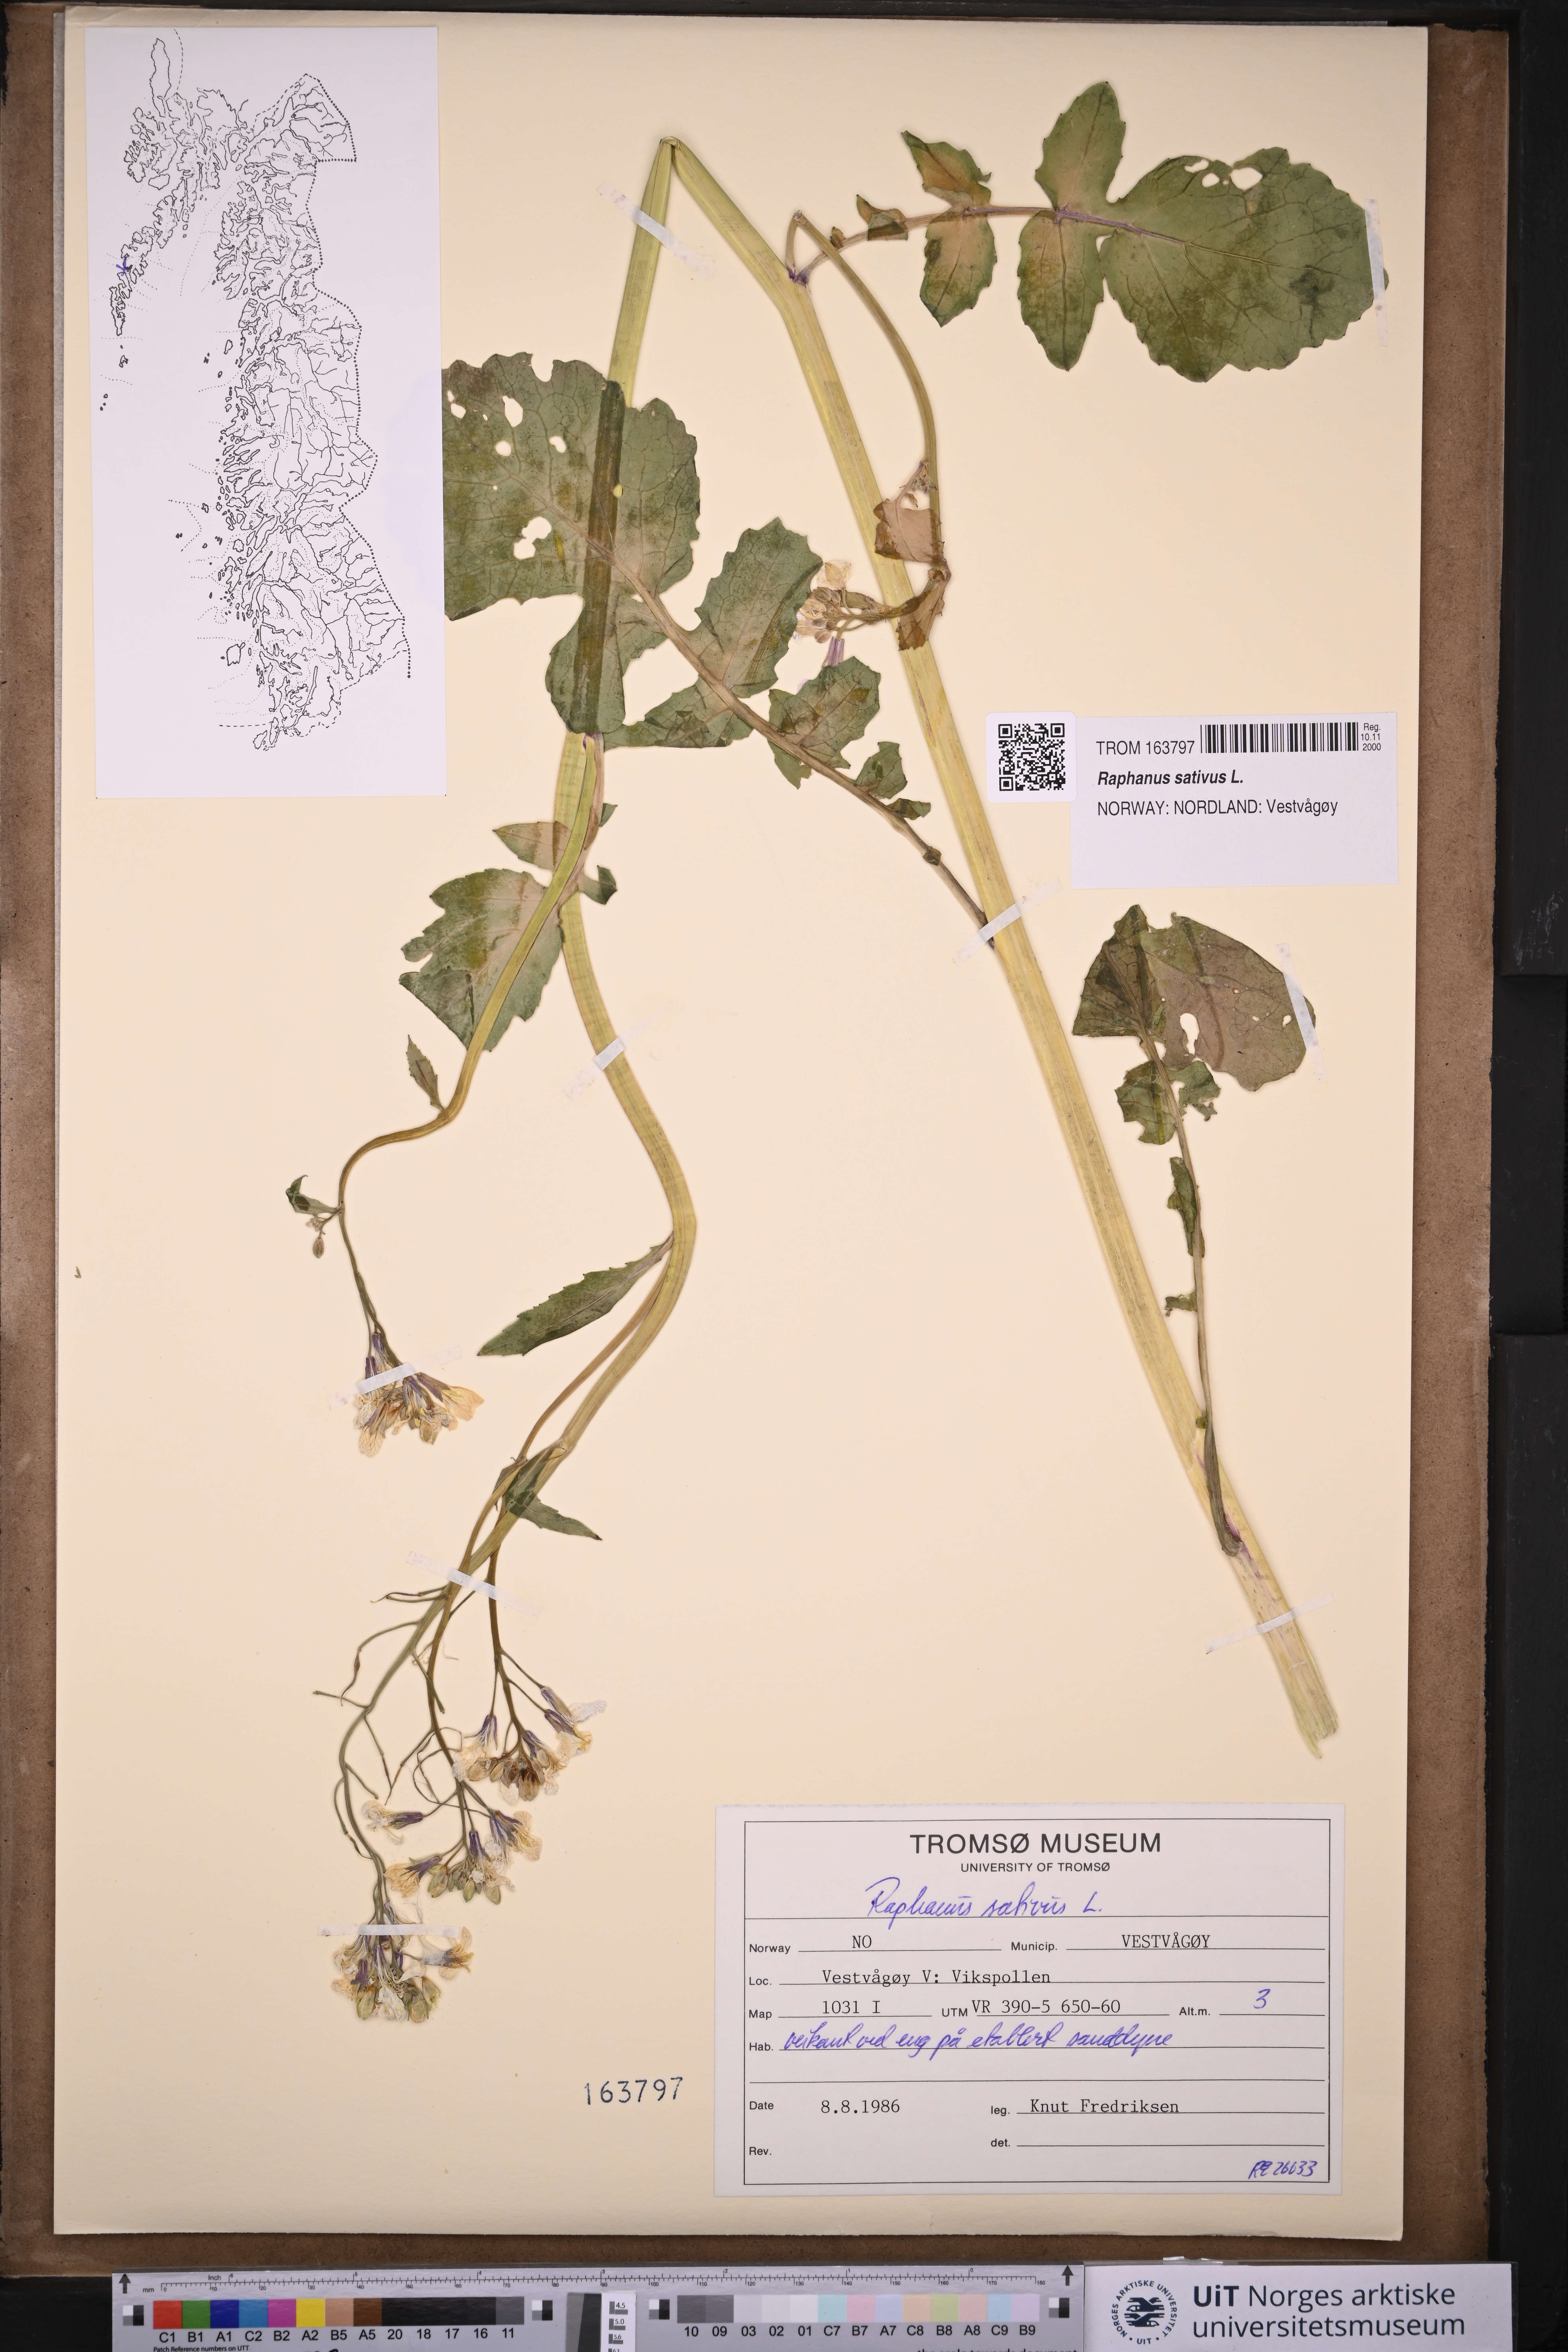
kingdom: Plantae
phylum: Tracheophyta
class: Magnoliopsida
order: Brassicales
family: Brassicaceae
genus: Raphanus
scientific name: Raphanus sativus
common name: Cultivated radish
